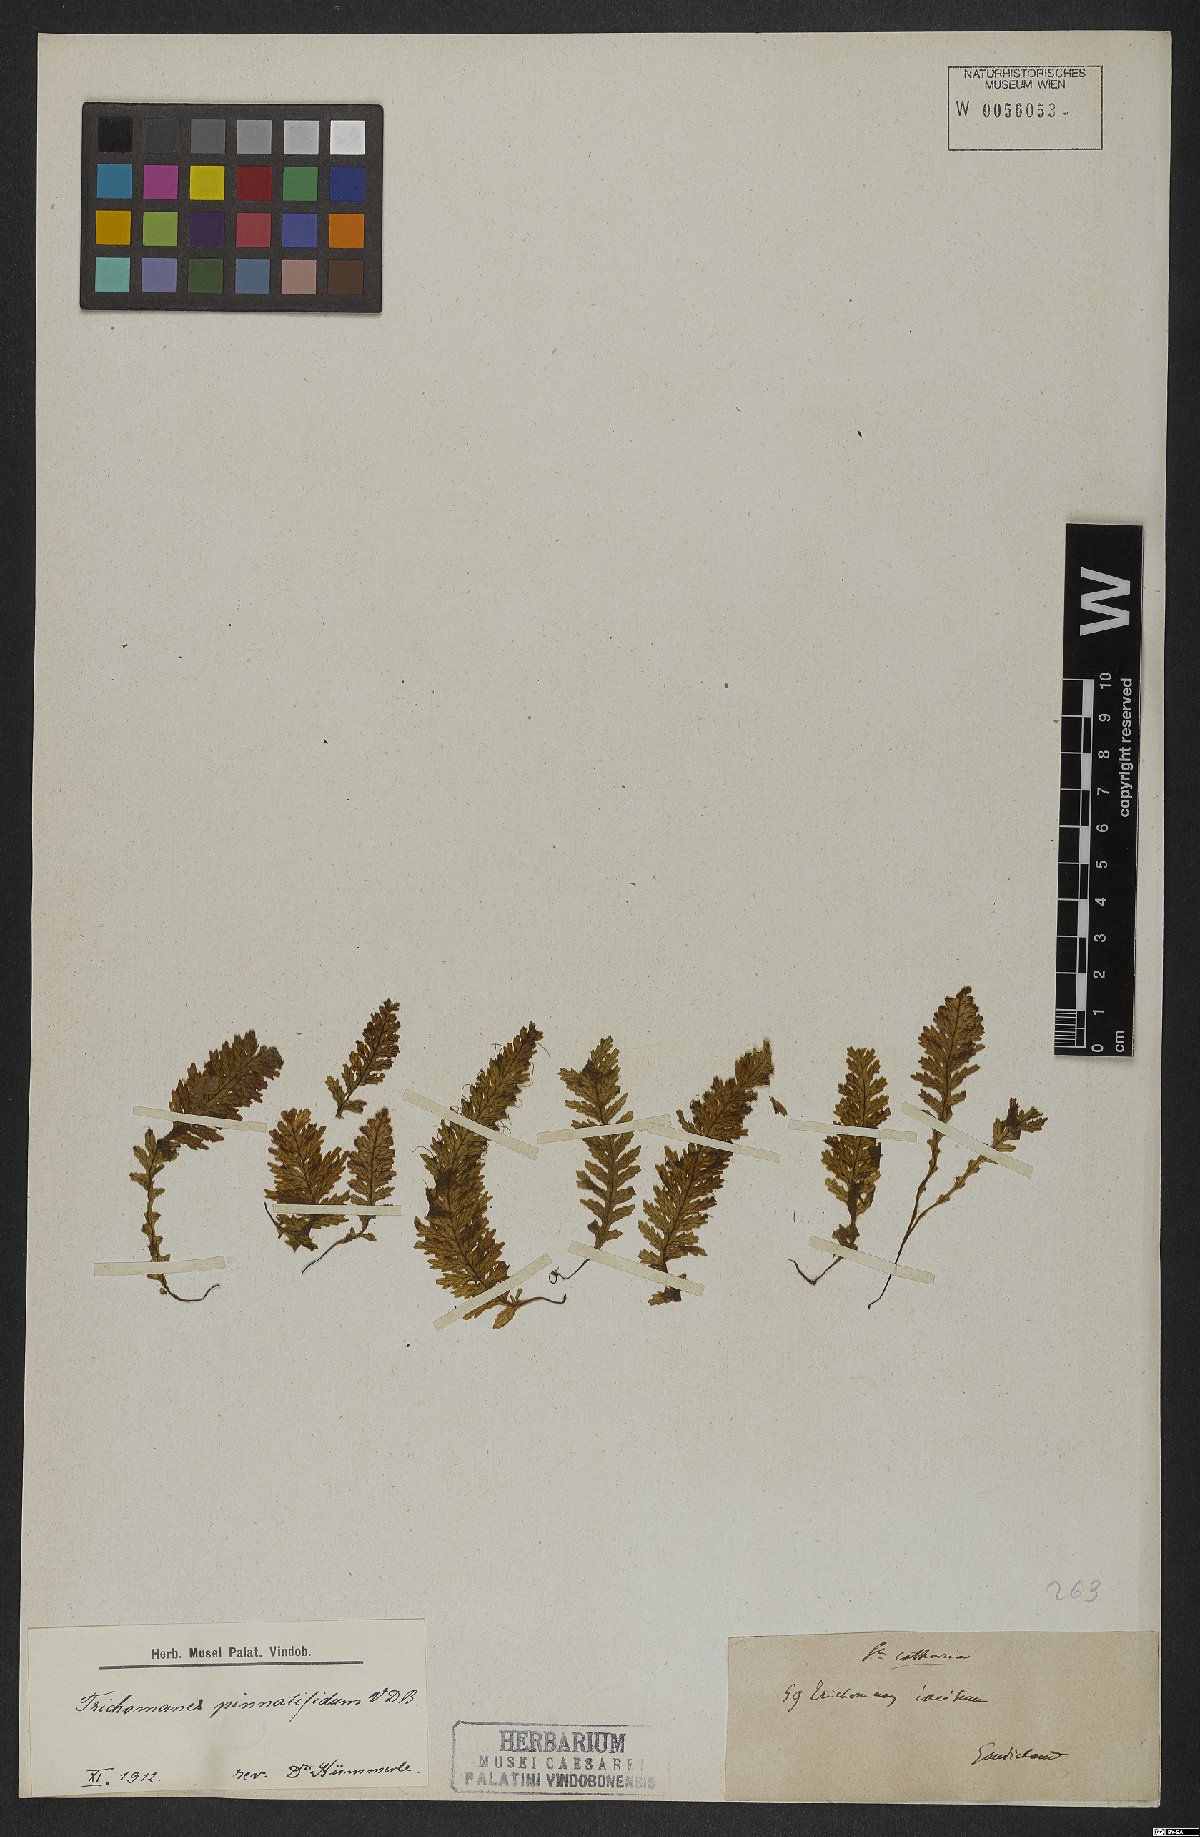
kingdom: Plantae
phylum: Tracheophyta
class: Polypodiopsida
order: Hymenophyllales
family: Hymenophyllaceae
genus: Trichomanes
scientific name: Trichomanes pinnatifidum
